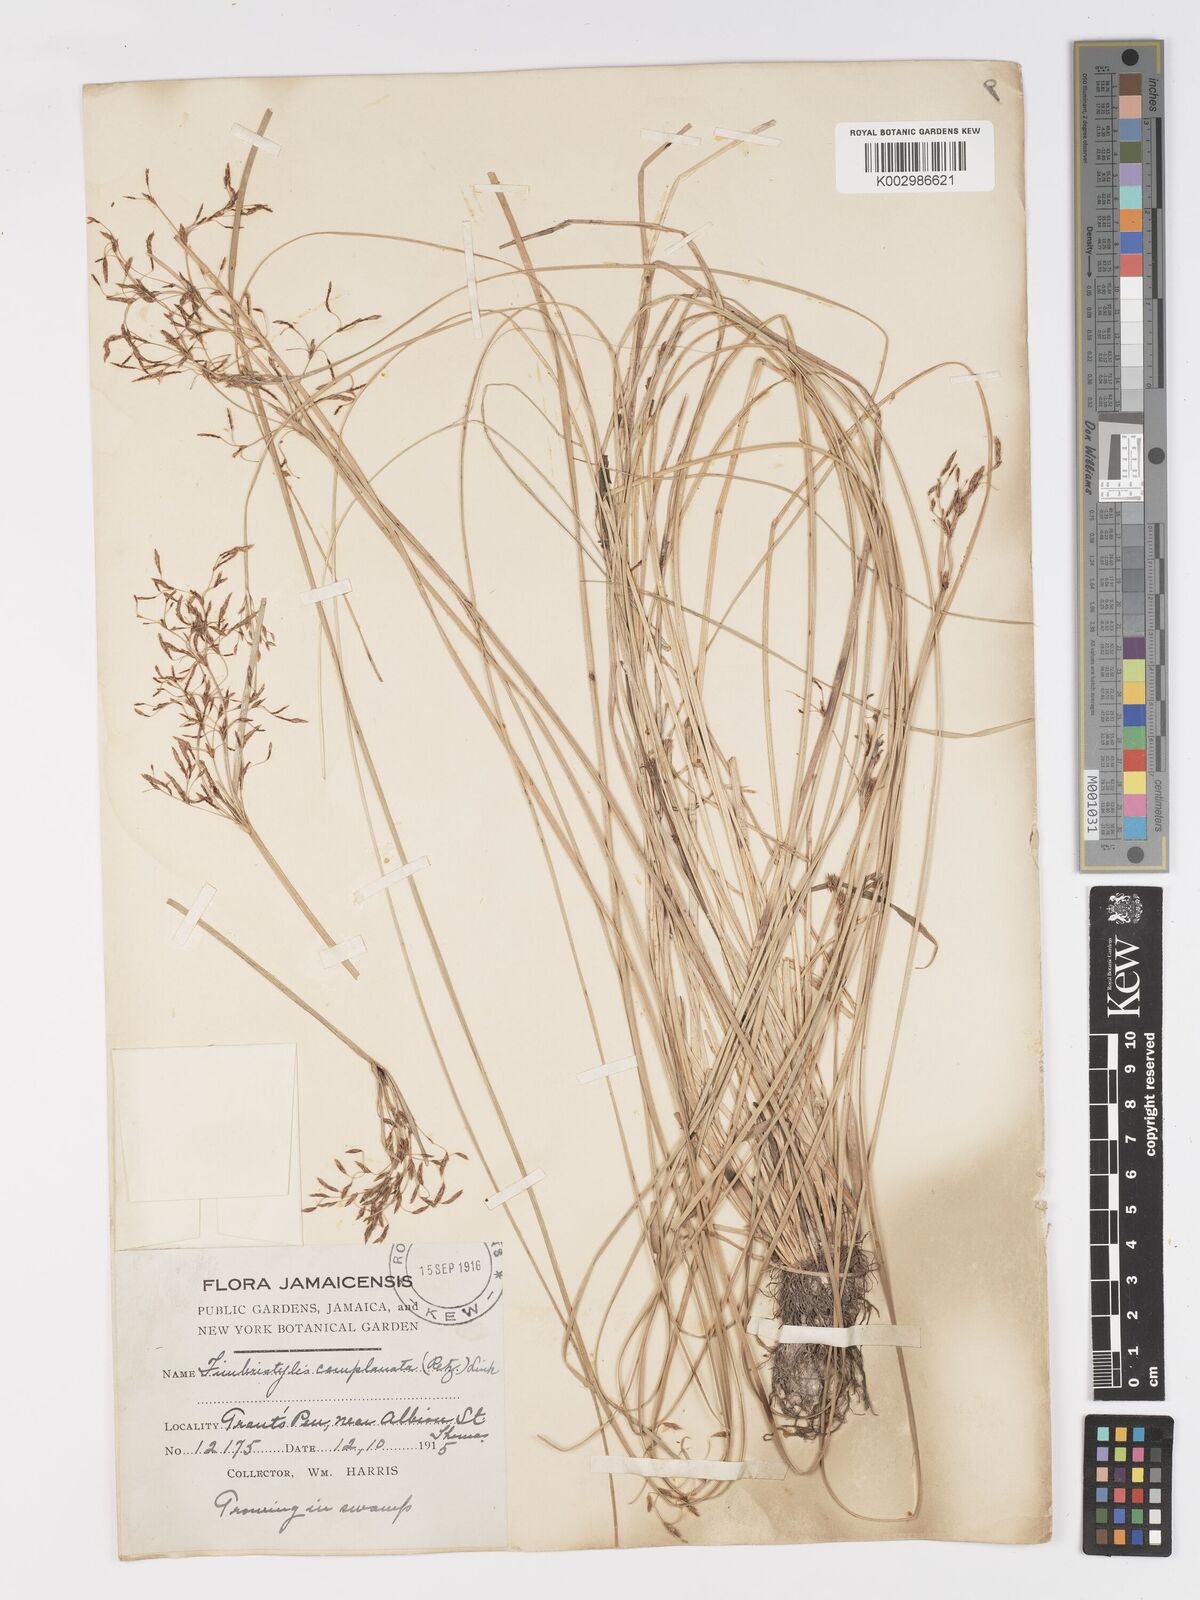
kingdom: Plantae
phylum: Tracheophyta
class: Liliopsida
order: Poales
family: Cyperaceae
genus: Fimbristylis
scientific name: Fimbristylis complanata
